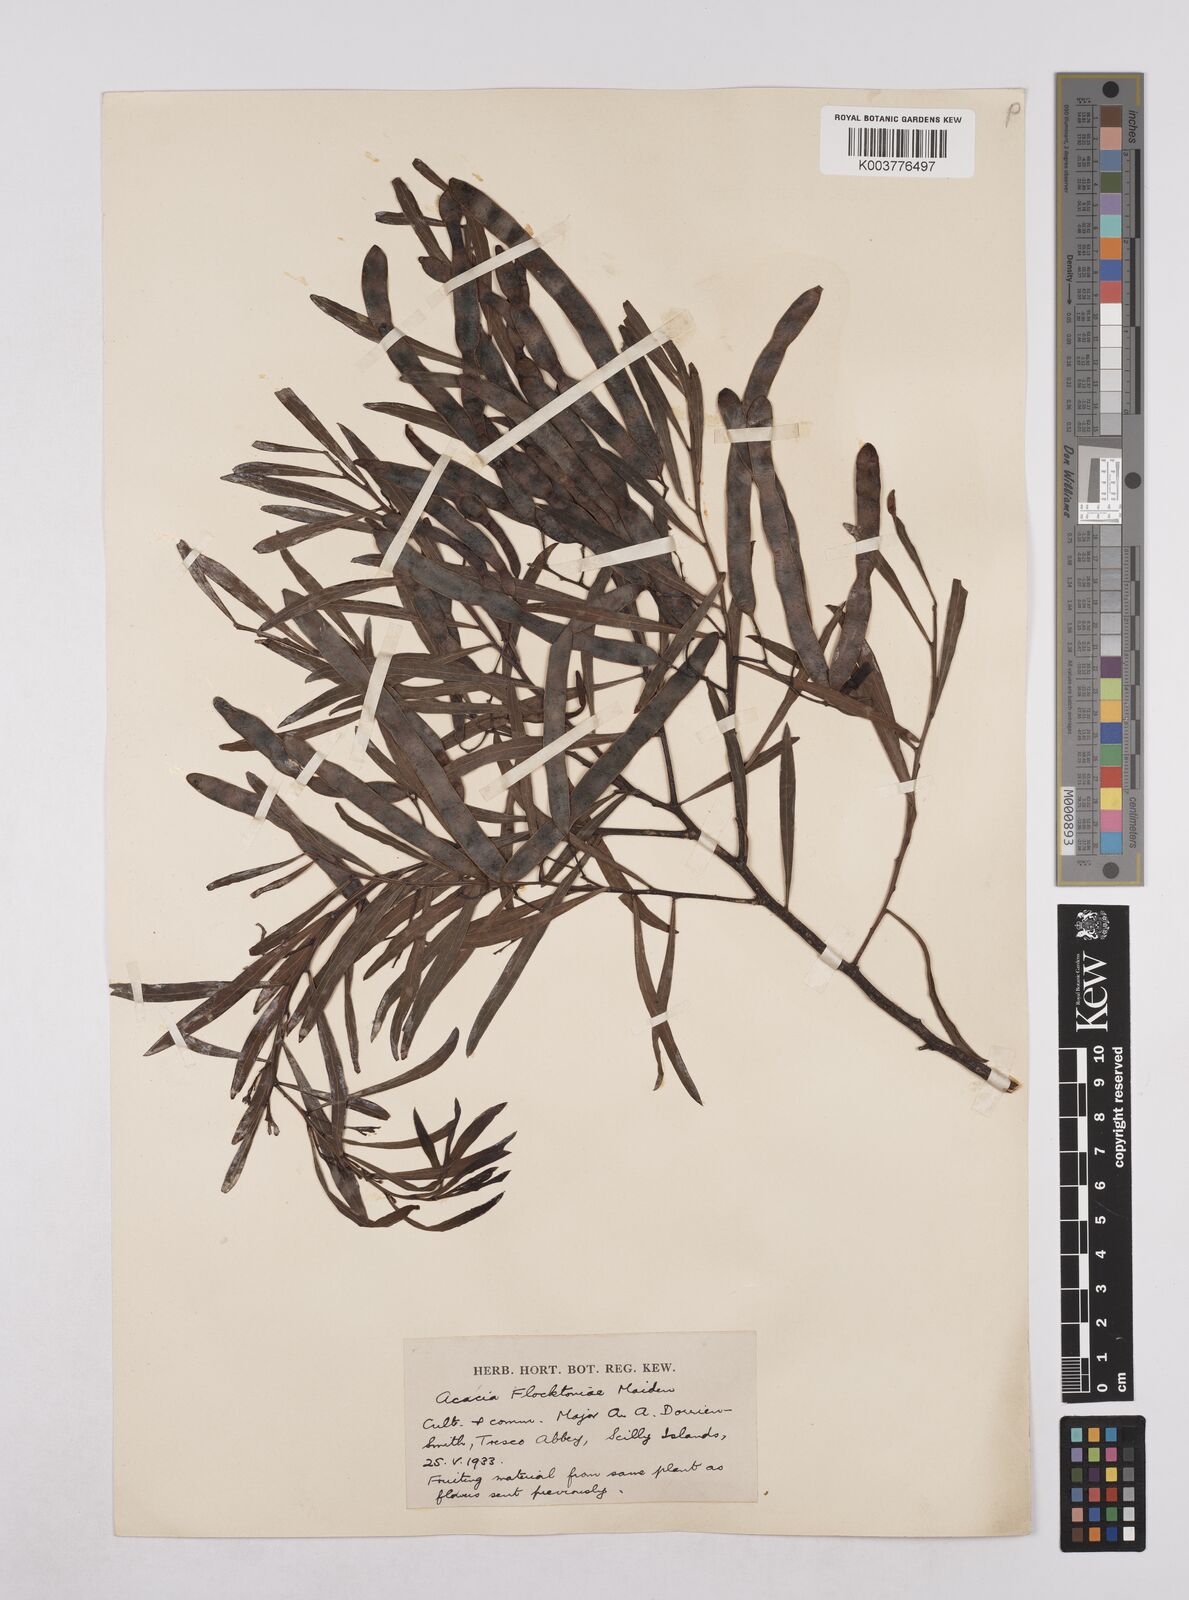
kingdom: Plantae
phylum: Tracheophyta
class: Magnoliopsida
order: Fabales
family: Fabaceae
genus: Acacia
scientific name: Acacia flocktoniae
